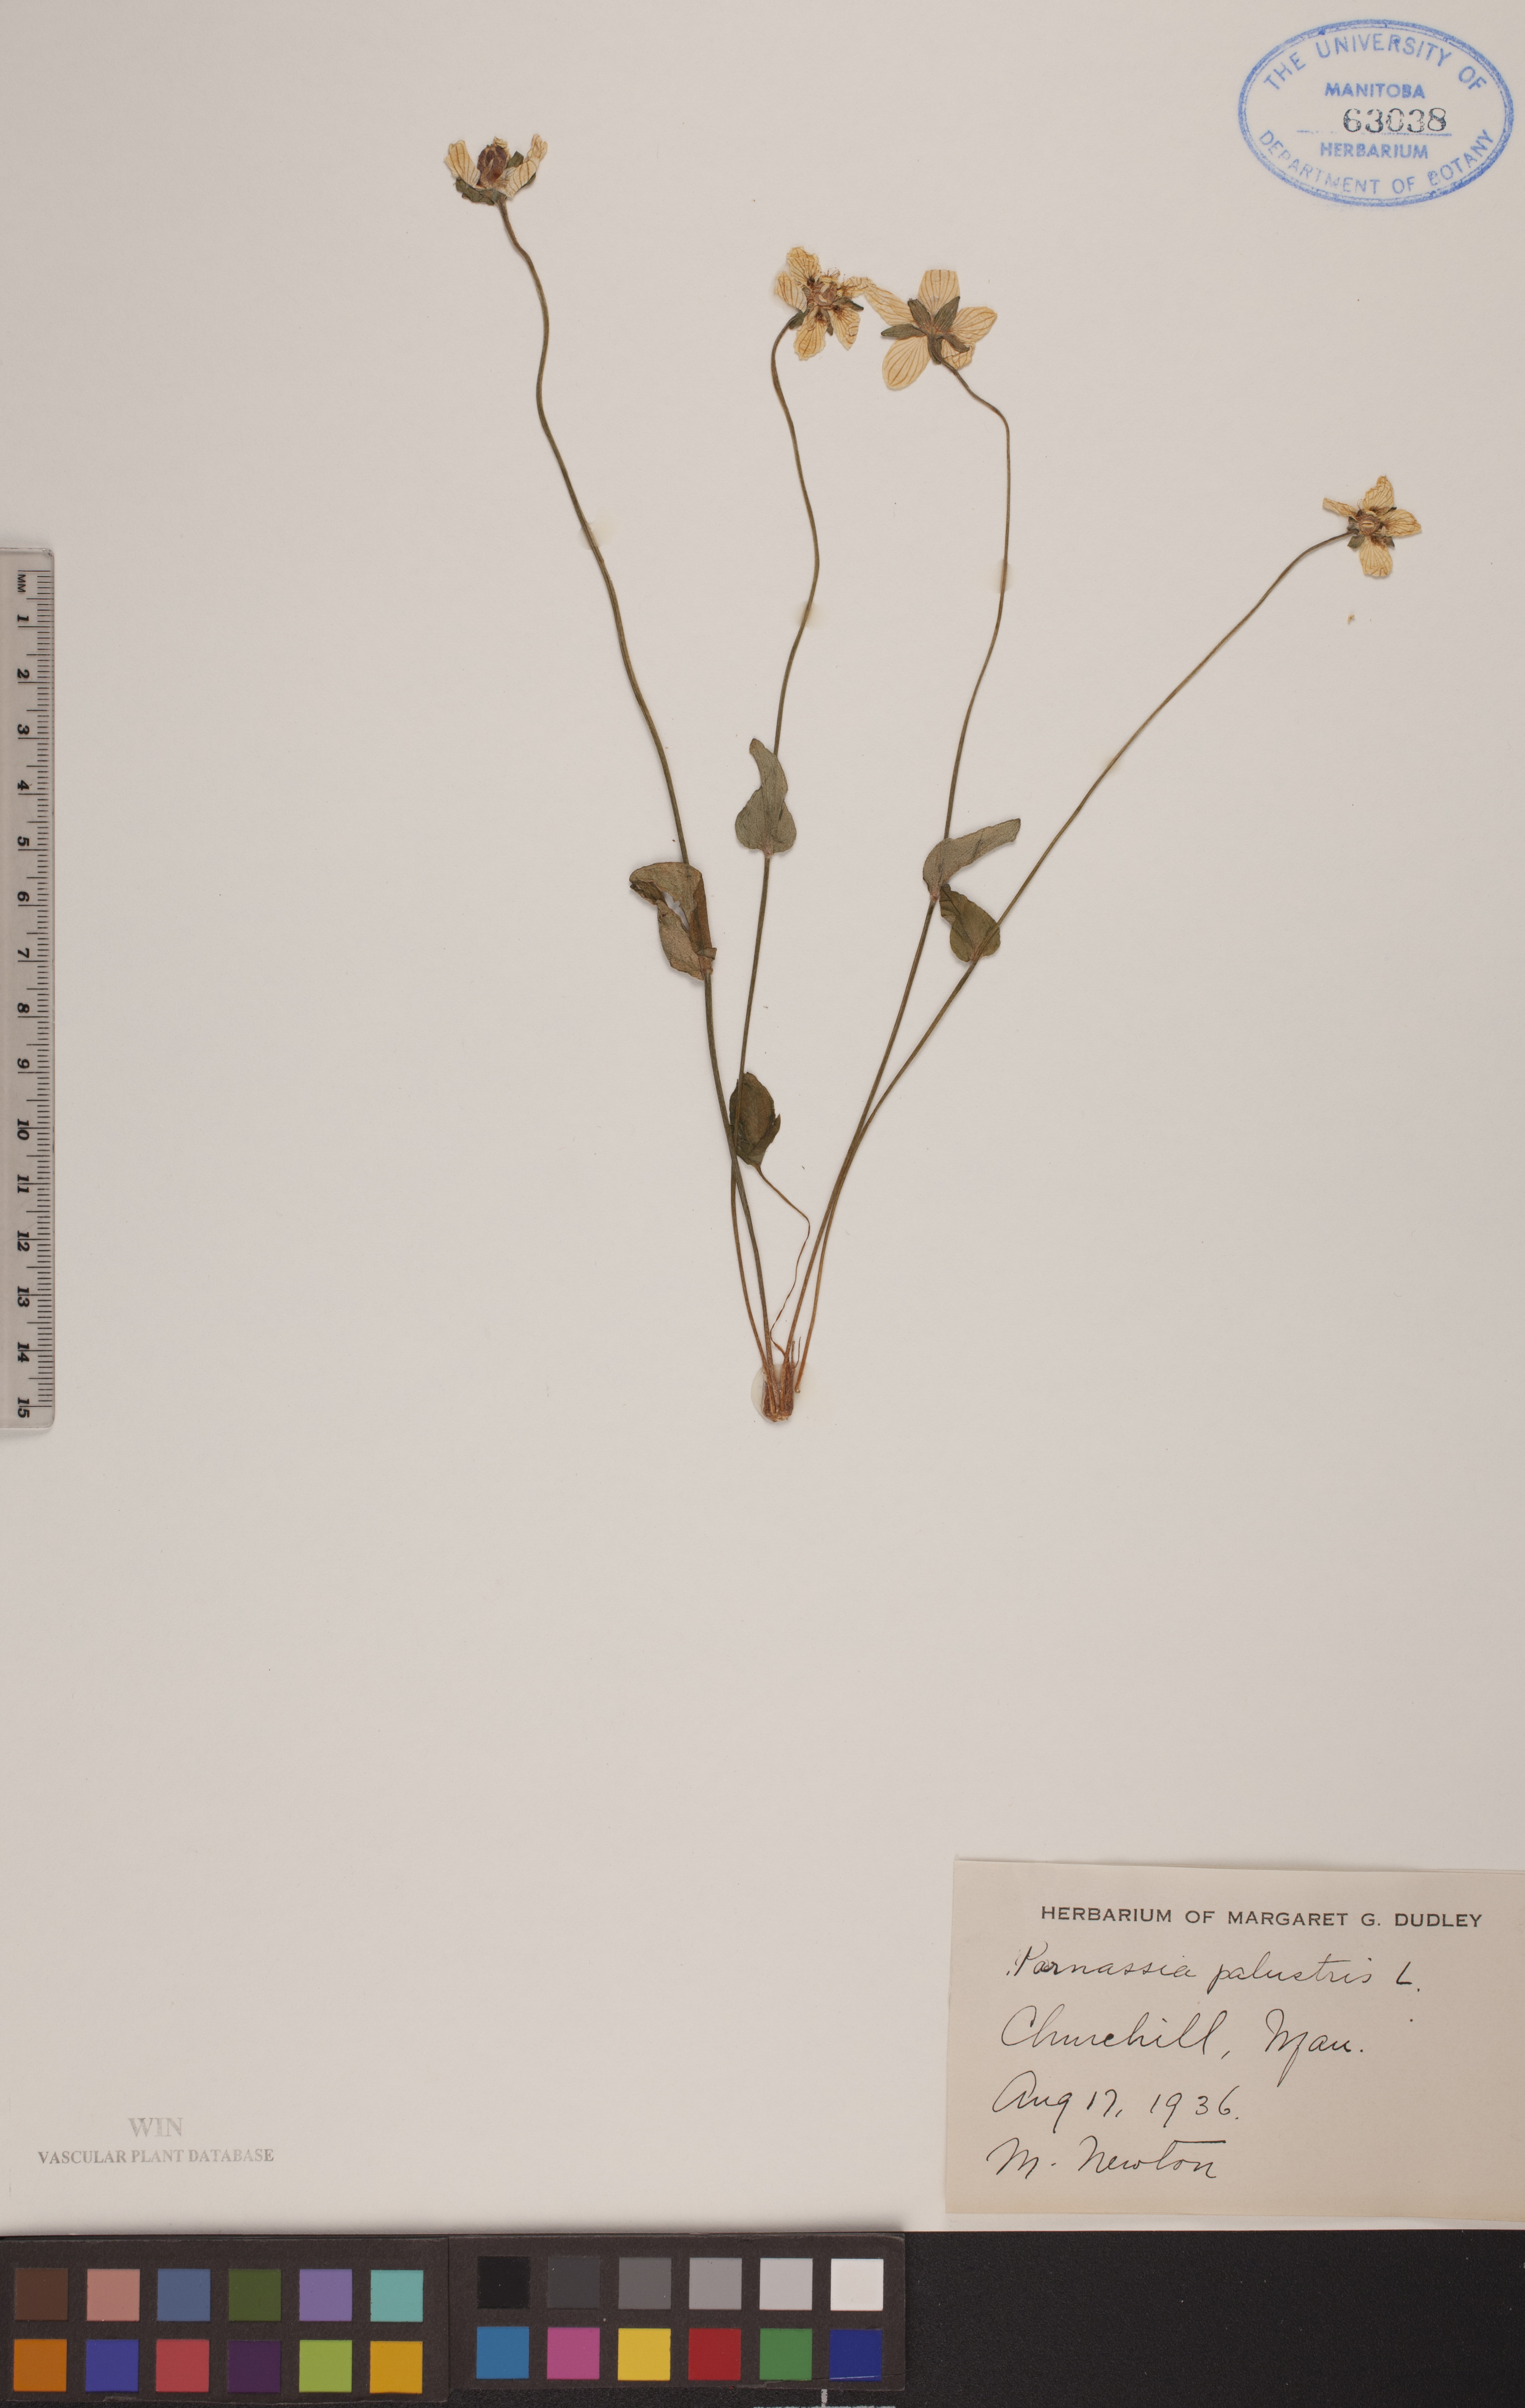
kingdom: Plantae
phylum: Tracheophyta
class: Magnoliopsida
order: Celastrales
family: Parnassiaceae
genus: Parnassia
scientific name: Parnassia palustris
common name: Grass-of-parnassus
